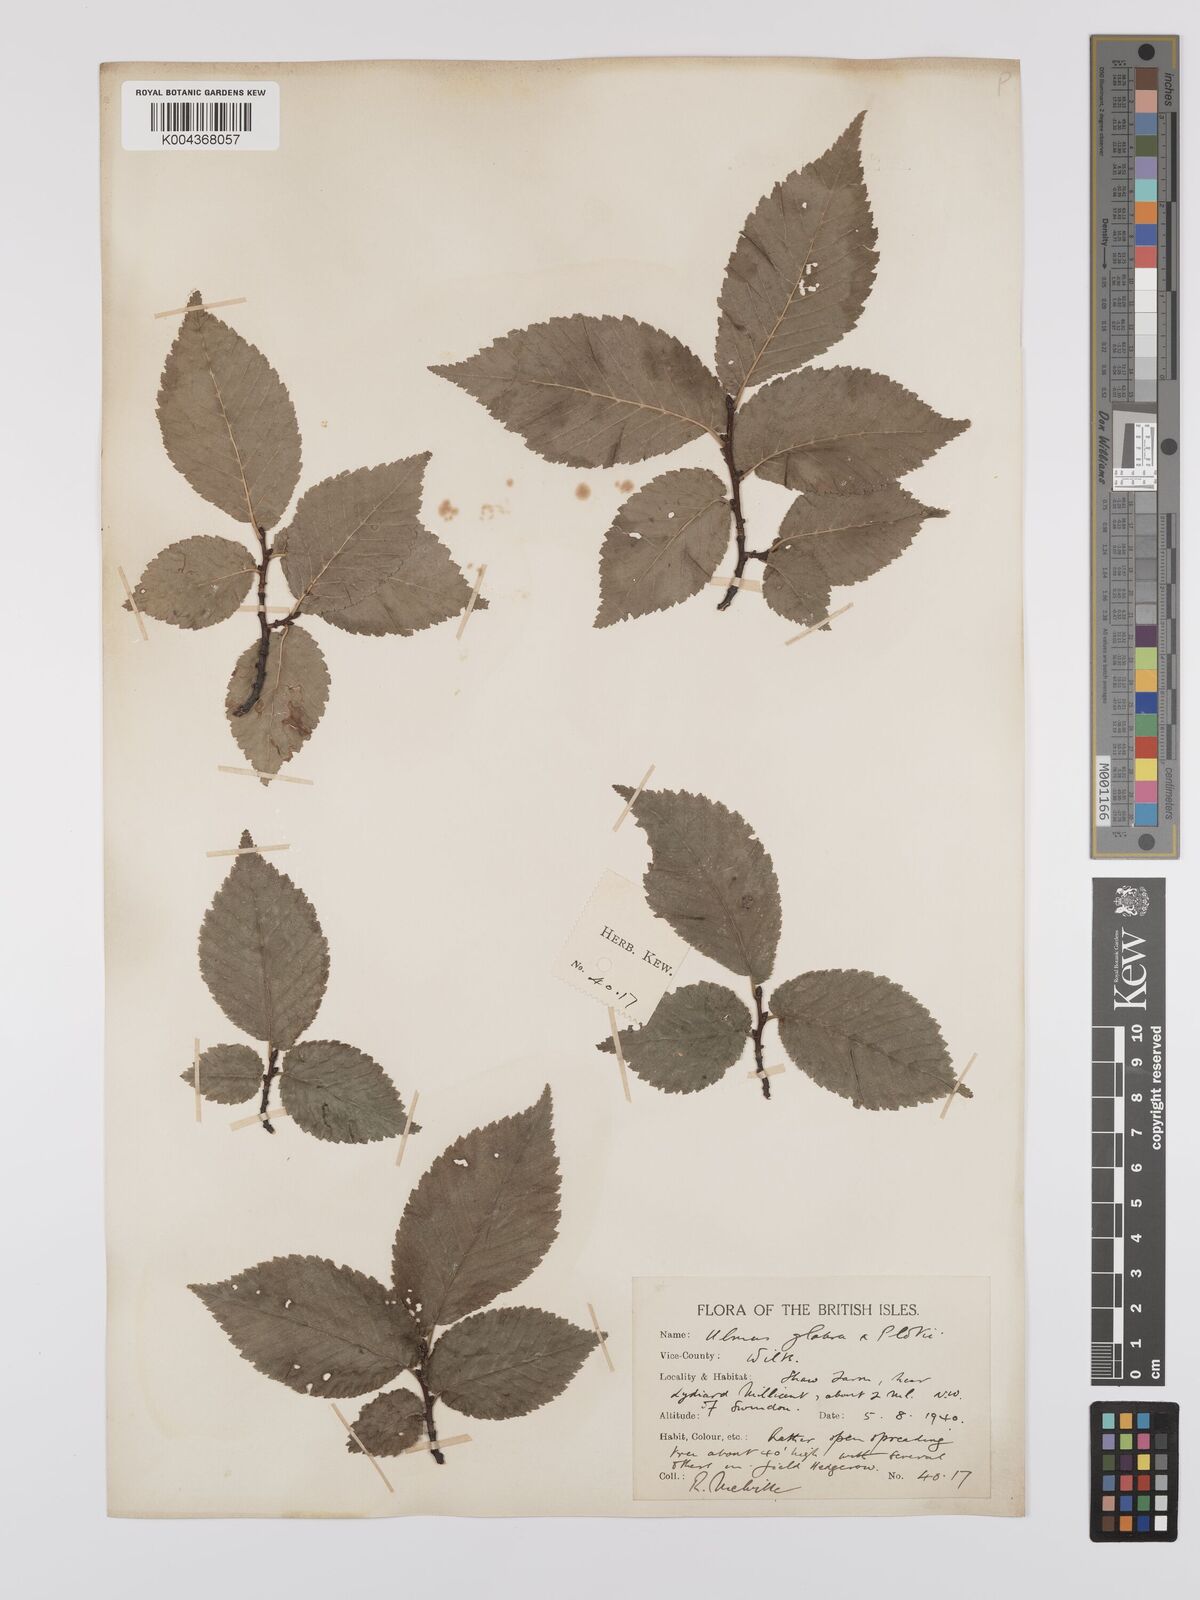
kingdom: Plantae
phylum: Tracheophyta
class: Magnoliopsida
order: Rosales
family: Ulmaceae
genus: Ulmus
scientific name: Ulmus
